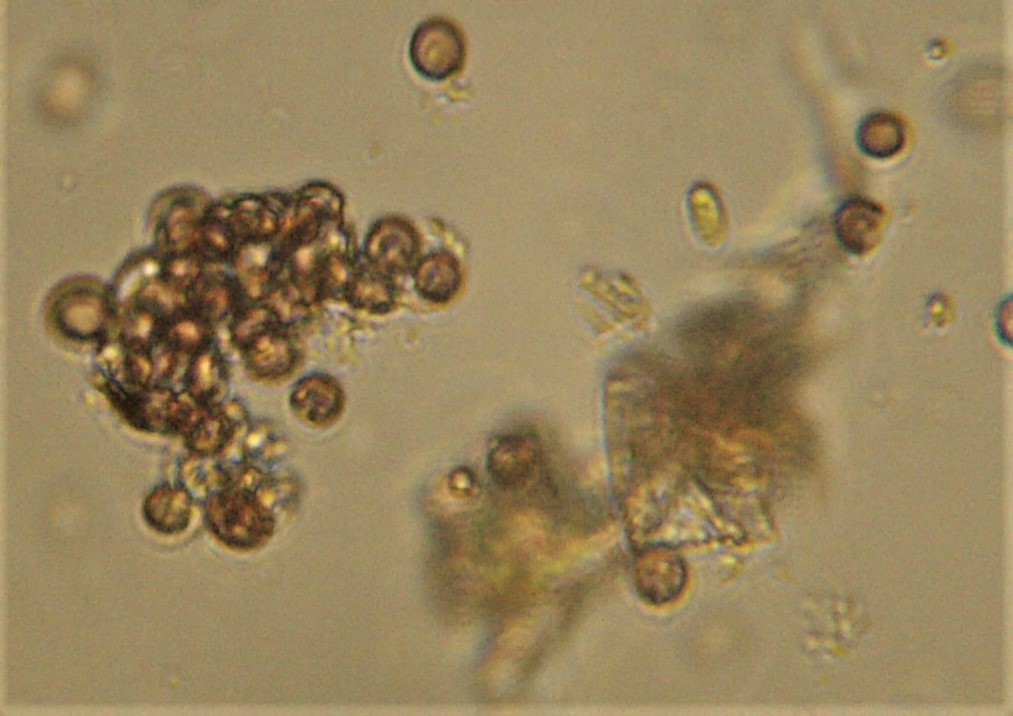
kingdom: Fungi
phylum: Ascomycota
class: Dothideomycetes
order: Hysteriales
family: Hysteriaceae
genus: Hysterium
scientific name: Hysterium acuminatum
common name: almindelig kulmund
